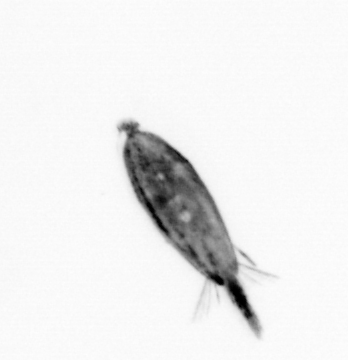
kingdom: Animalia
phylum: Arthropoda
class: Maxillopoda
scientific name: Maxillopoda
